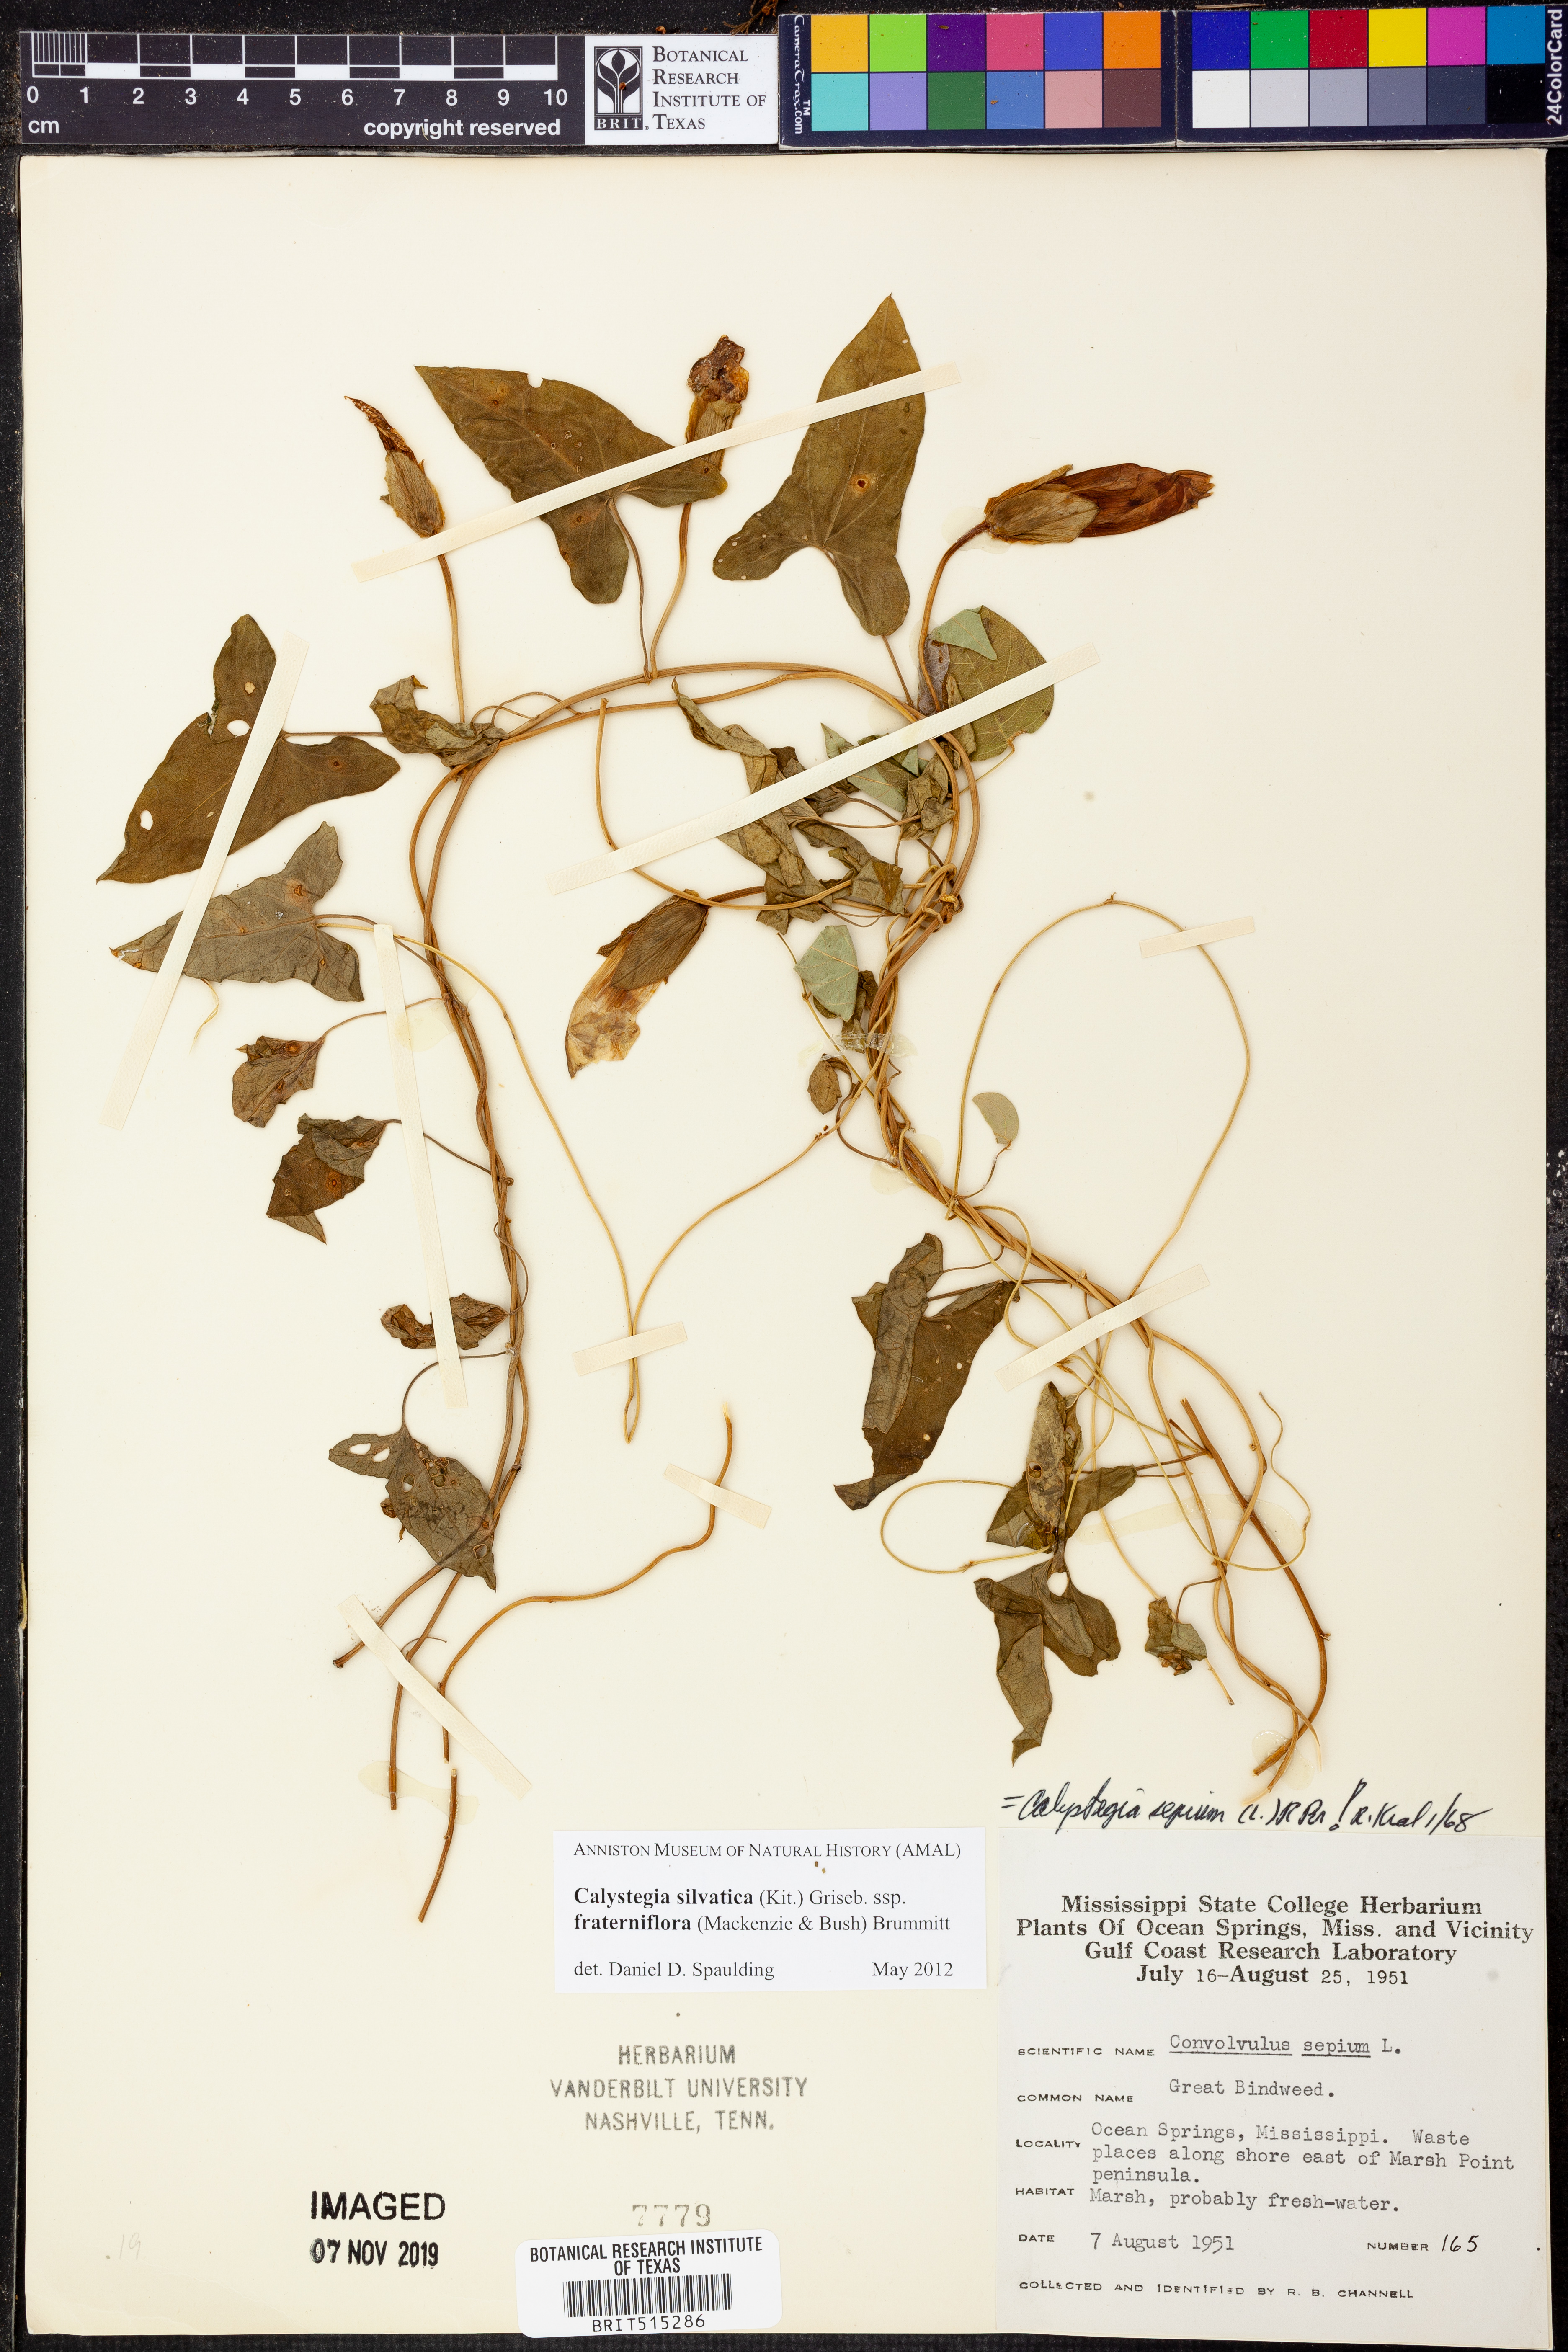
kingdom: Plantae
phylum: Tracheophyta
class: Magnoliopsida
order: Solanales
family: Convolvulaceae
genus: Calystegia
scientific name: Calystegia silvatica
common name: Large bindweed
